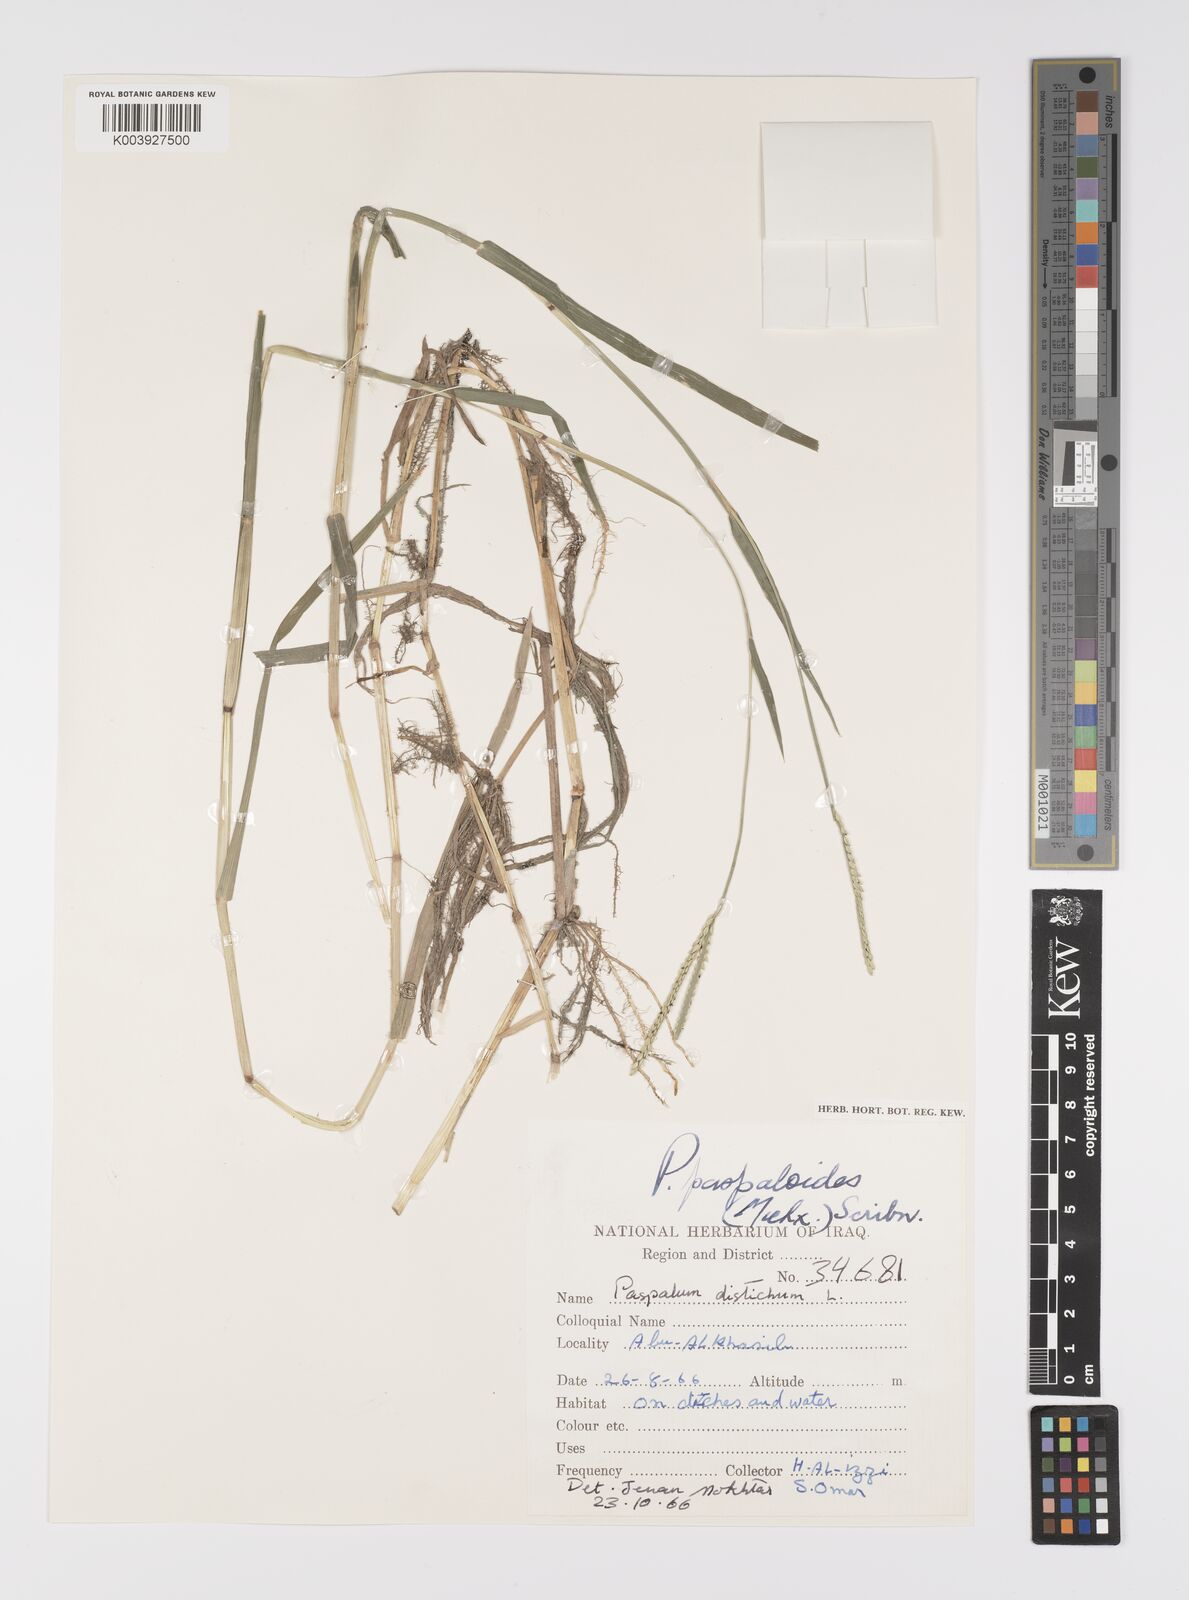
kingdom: Plantae
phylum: Tracheophyta
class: Liliopsida
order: Poales
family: Poaceae
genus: Paspalum
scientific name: Paspalum distichum
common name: Knotgrass
